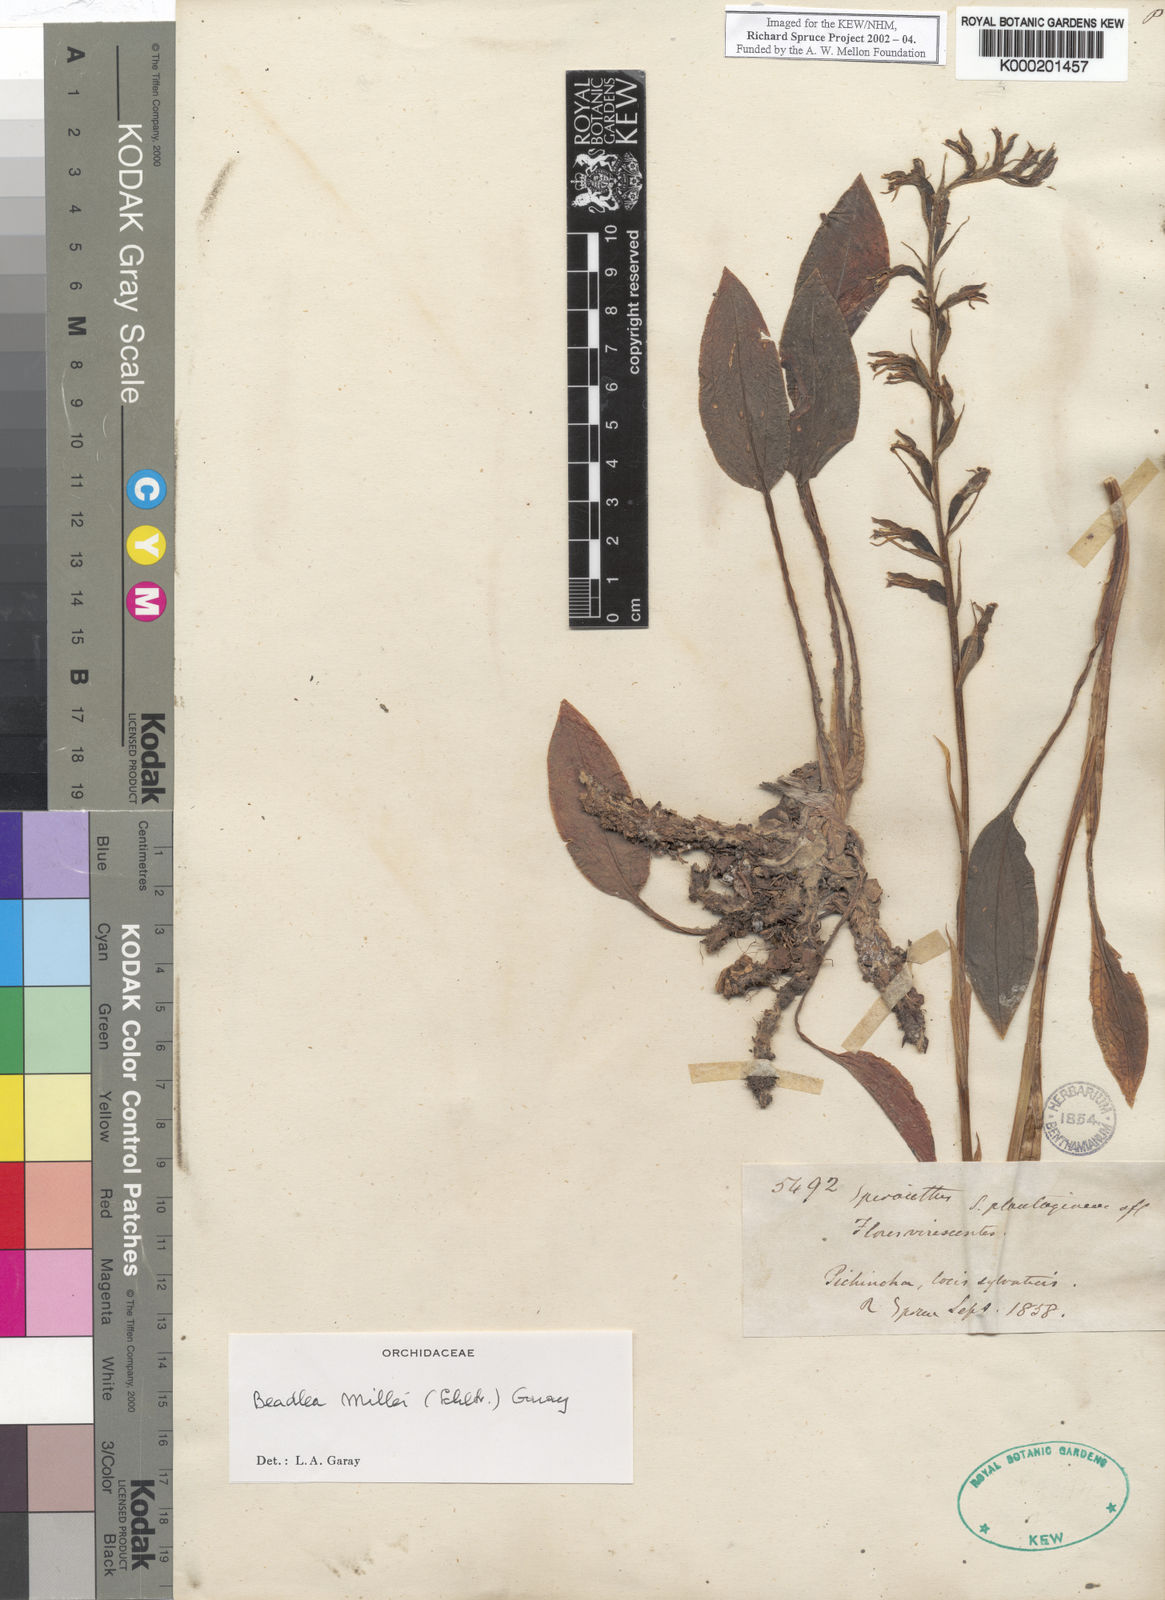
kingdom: Plantae
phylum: Tracheophyta
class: Liliopsida
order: Asparagales
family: Orchidaceae
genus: Cyclopogon
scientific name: Cyclopogon millei
